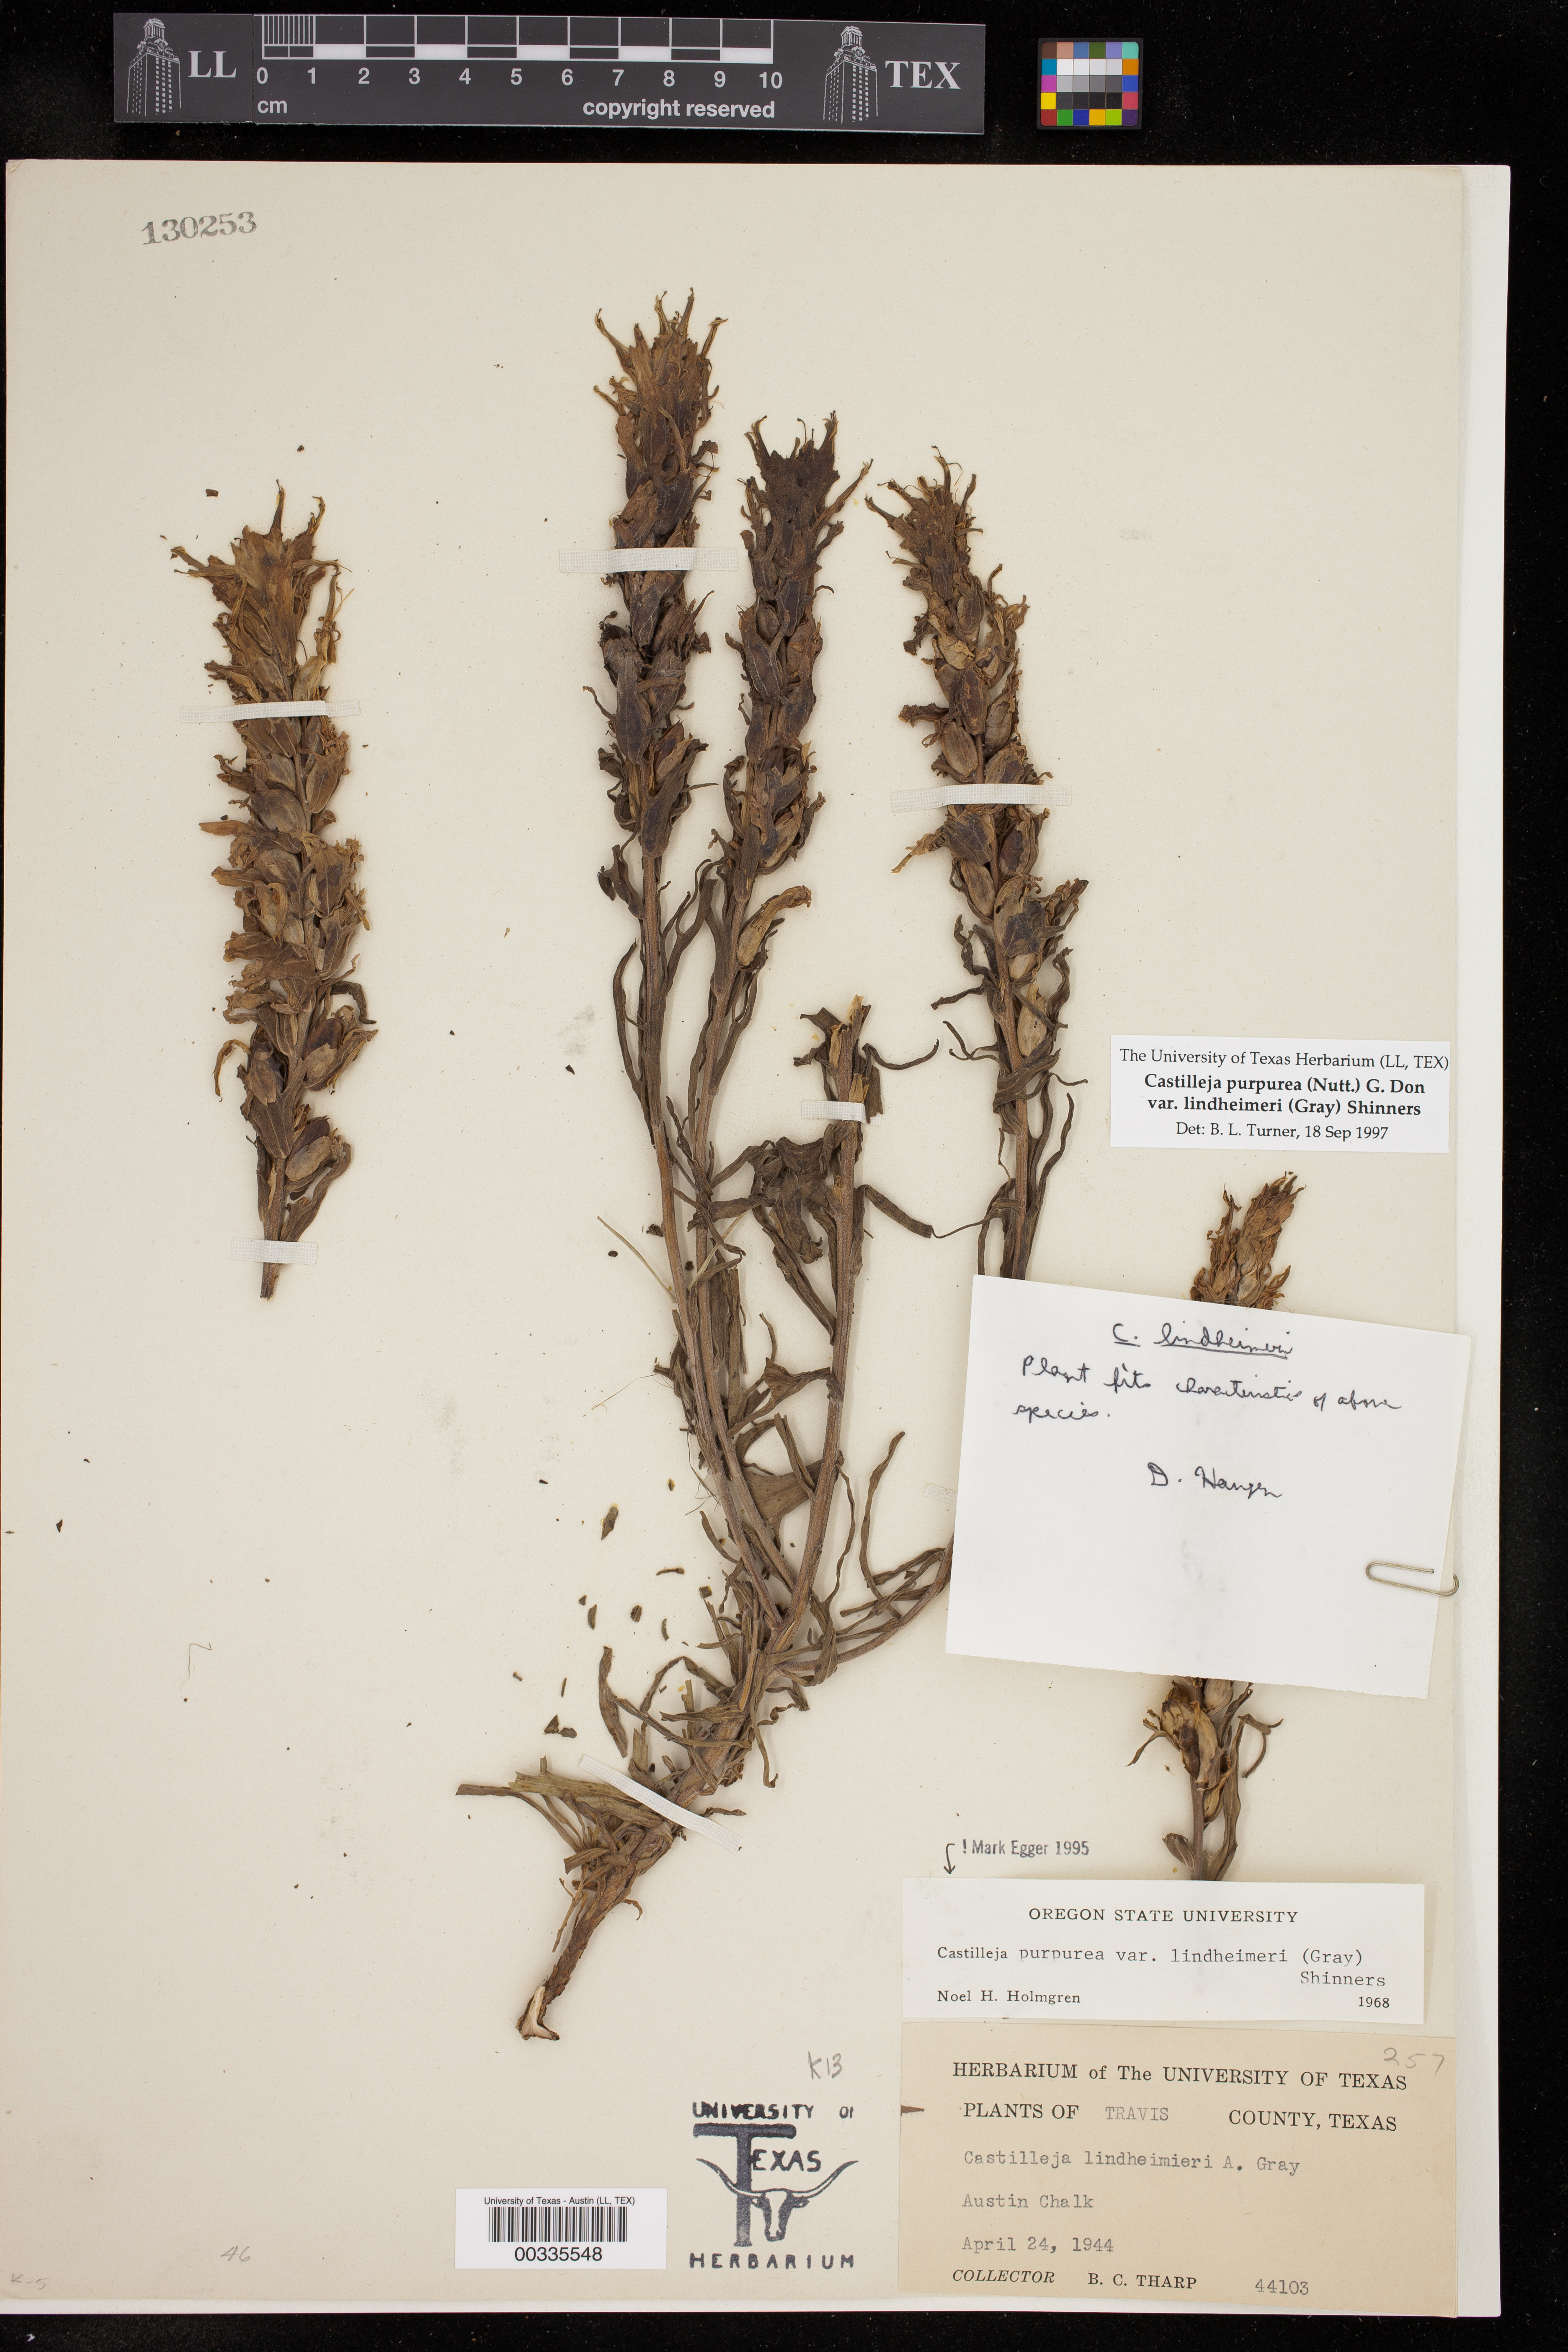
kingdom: Plantae
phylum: Tracheophyta
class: Magnoliopsida
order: Lamiales
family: Orobanchaceae
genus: Castilleja
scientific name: Castilleja lindheimeri
